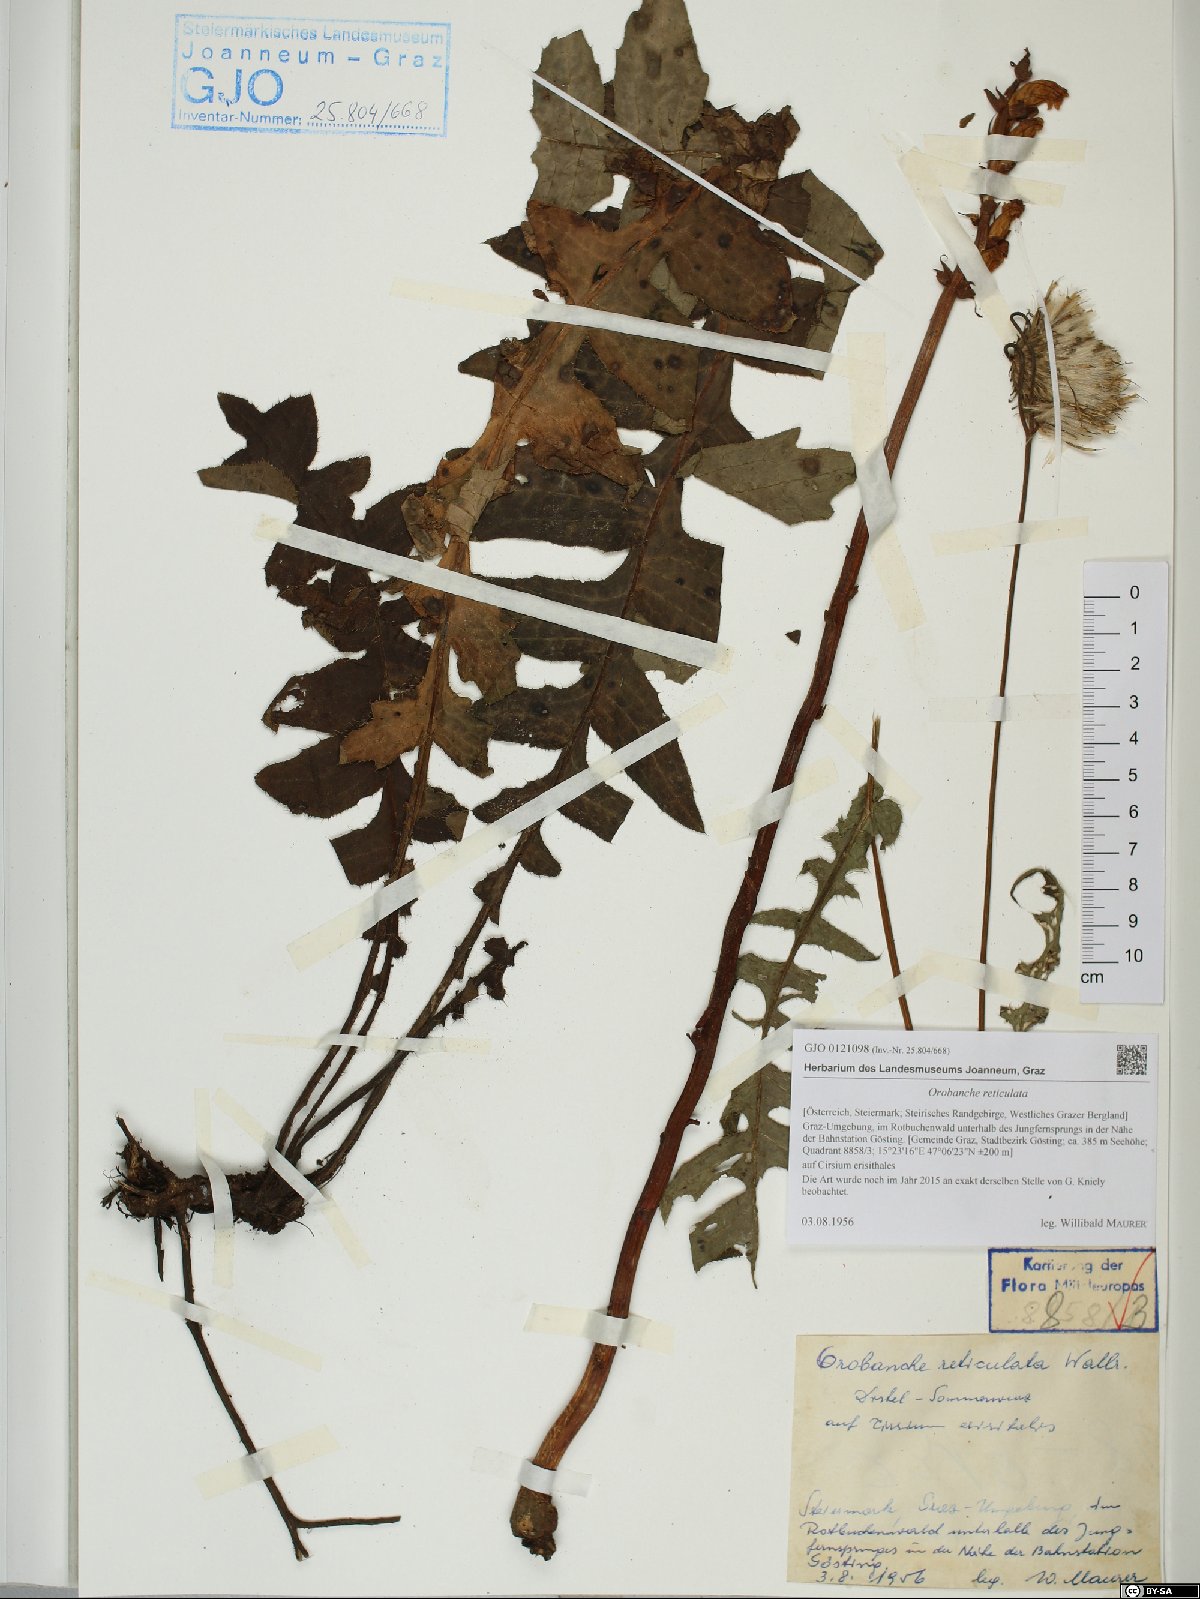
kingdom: Plantae
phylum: Tracheophyta
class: Magnoliopsida
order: Lamiales
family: Orobanchaceae
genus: Orobanche
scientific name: Orobanche reticulata
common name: Thistle broomrape
